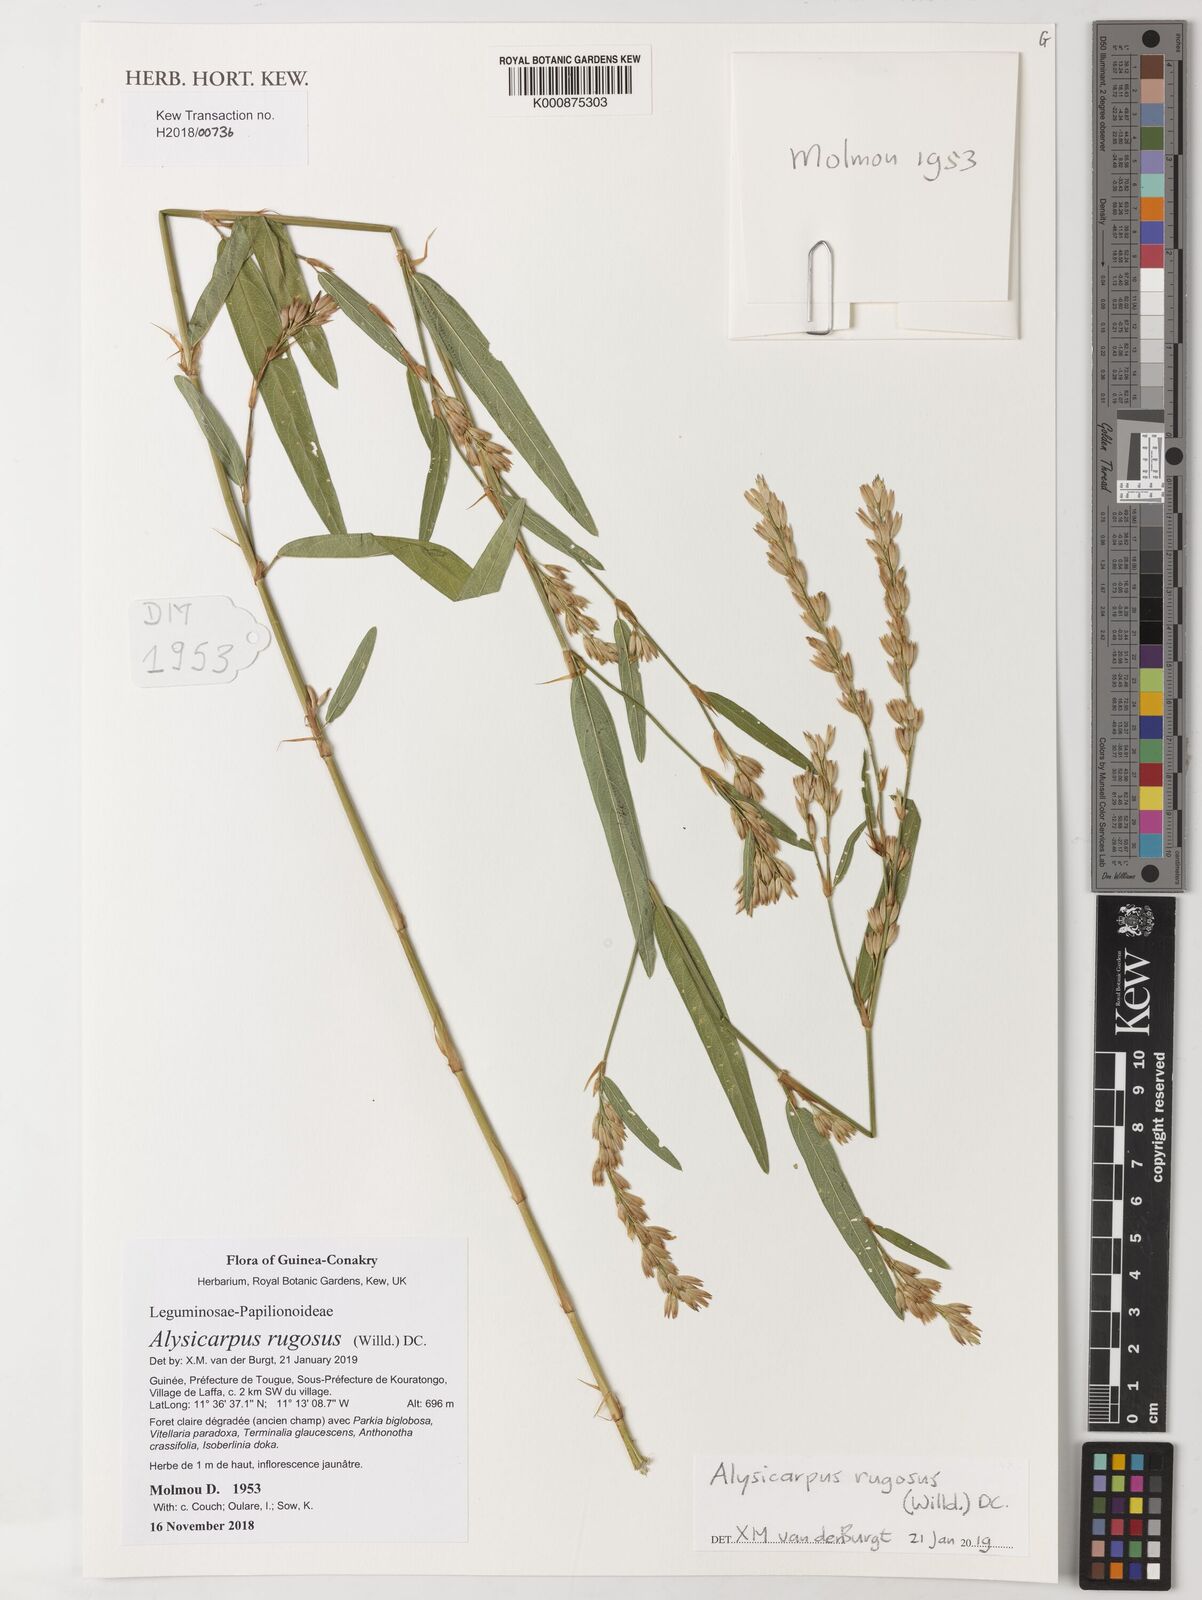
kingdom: Plantae
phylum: Tracheophyta
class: Magnoliopsida
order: Fabales
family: Fabaceae
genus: Alysicarpus
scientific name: Alysicarpus rugosus
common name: Red moneywort
